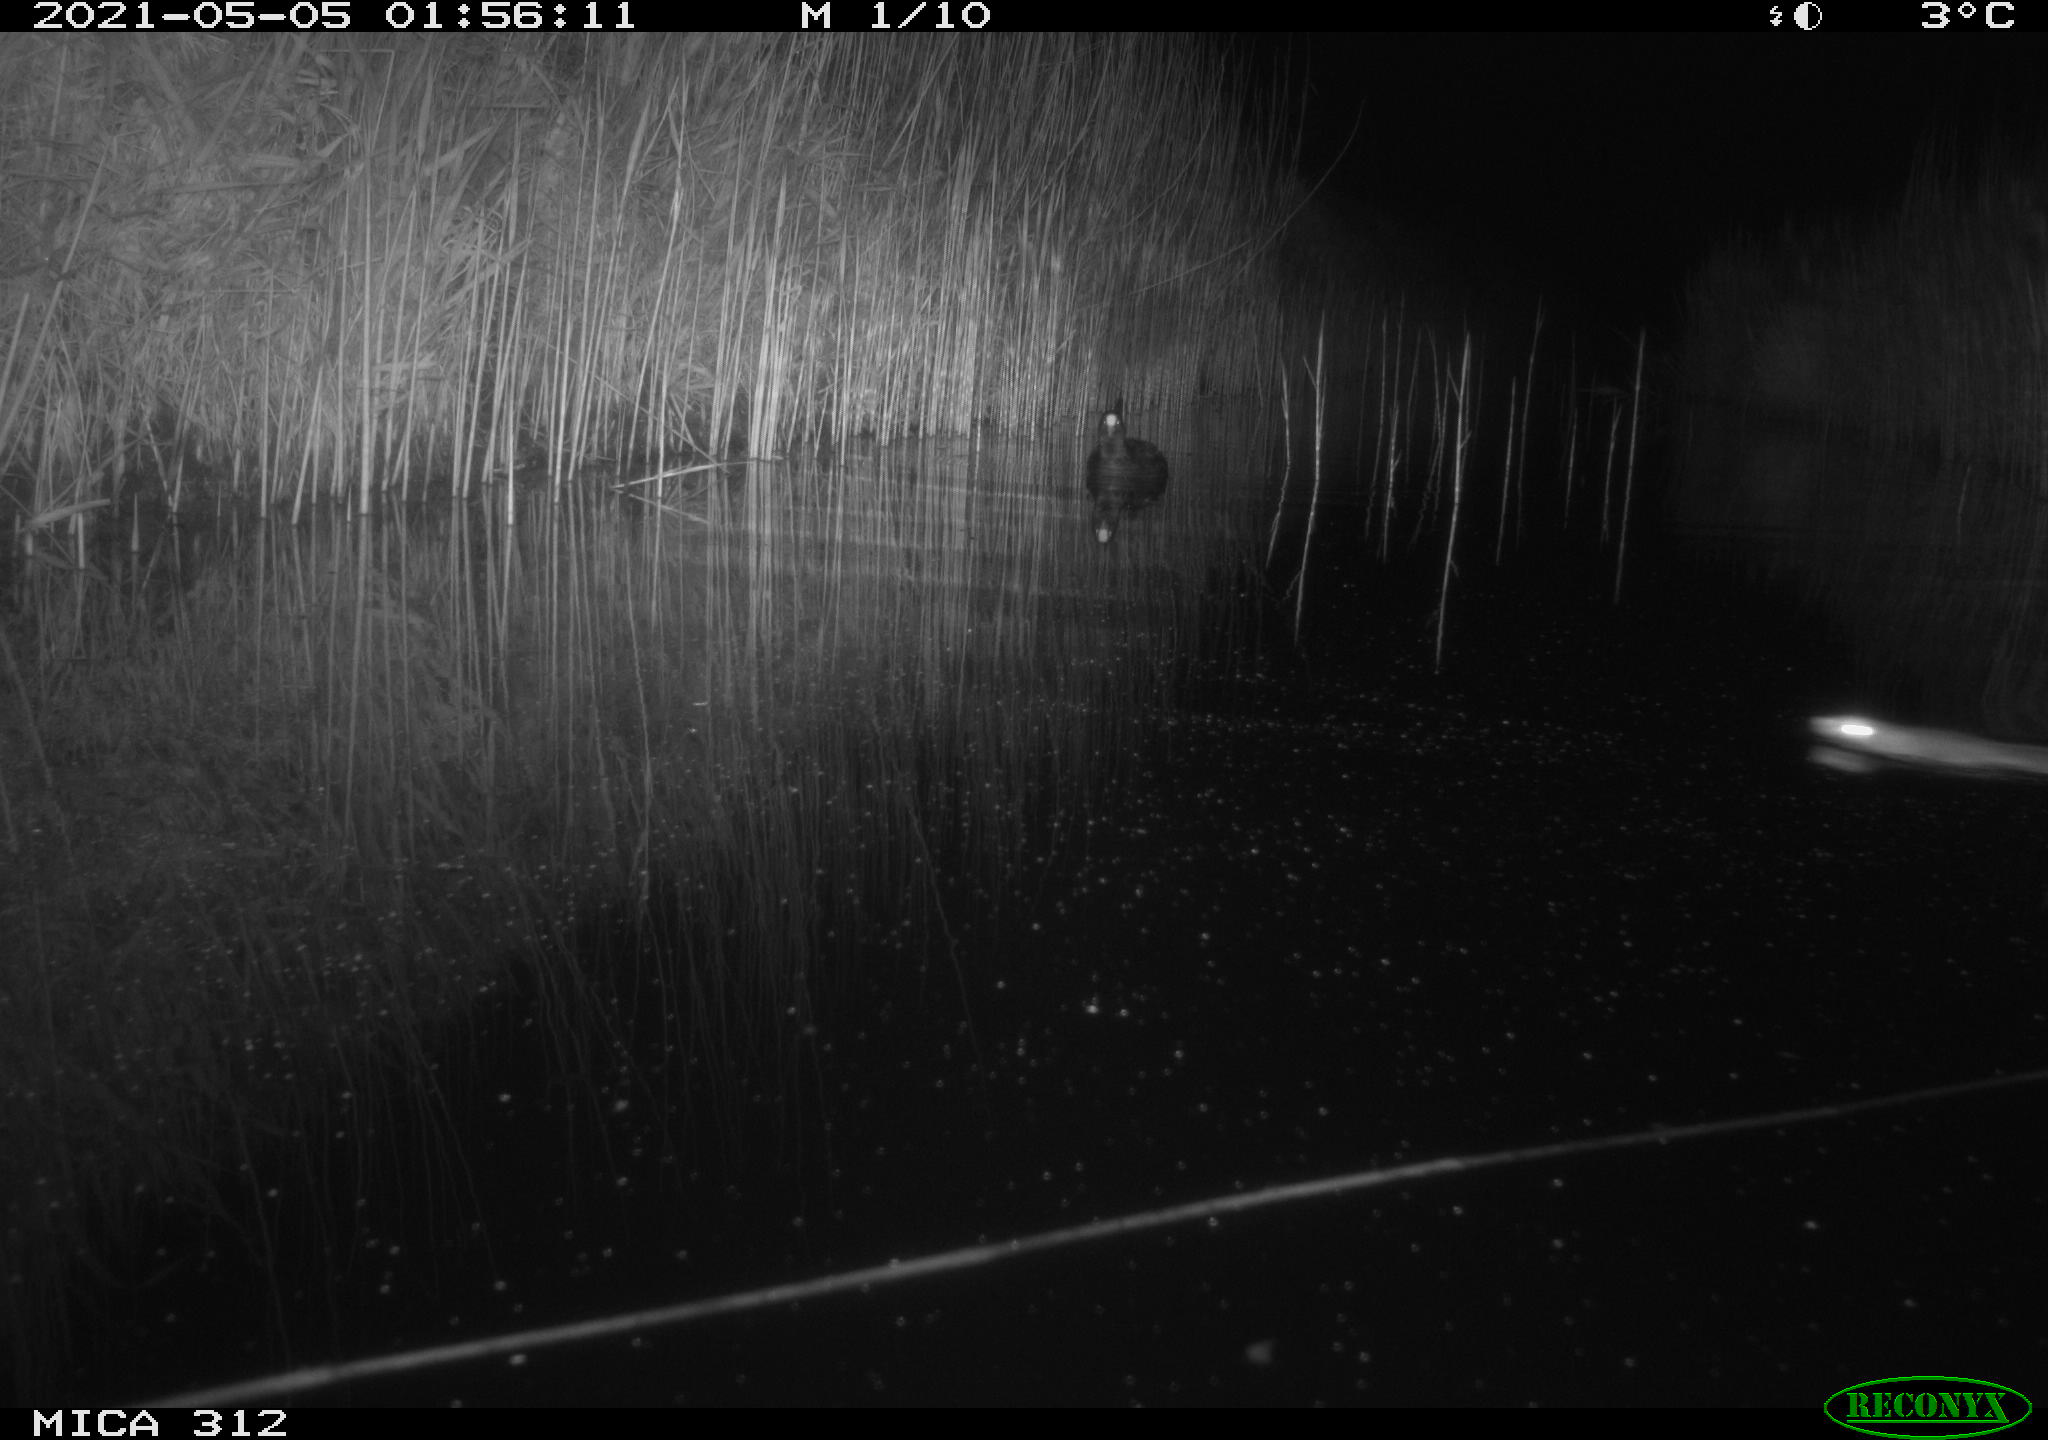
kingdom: Animalia
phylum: Chordata
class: Aves
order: Gruiformes
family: Rallidae
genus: Fulica
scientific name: Fulica atra
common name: Eurasian coot
